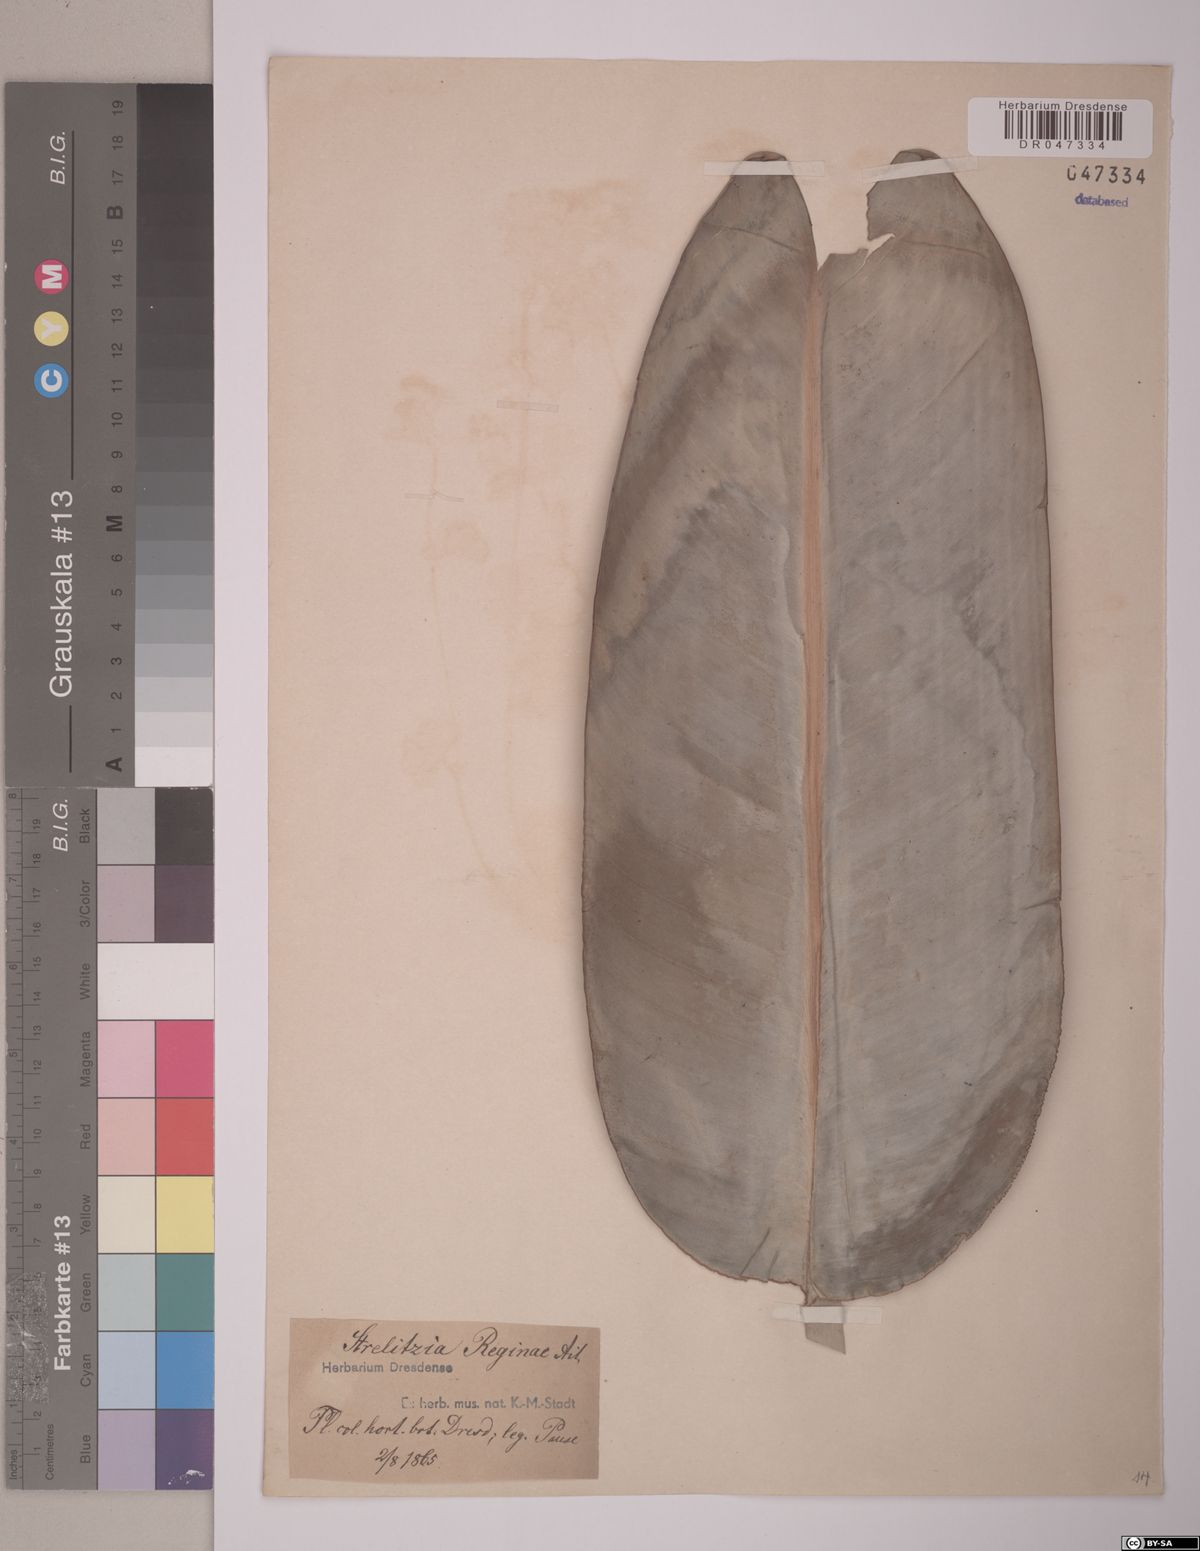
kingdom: Plantae
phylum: Tracheophyta
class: Liliopsida
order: Zingiberales
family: Strelitziaceae
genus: Strelitzia
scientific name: Strelitzia reginae
